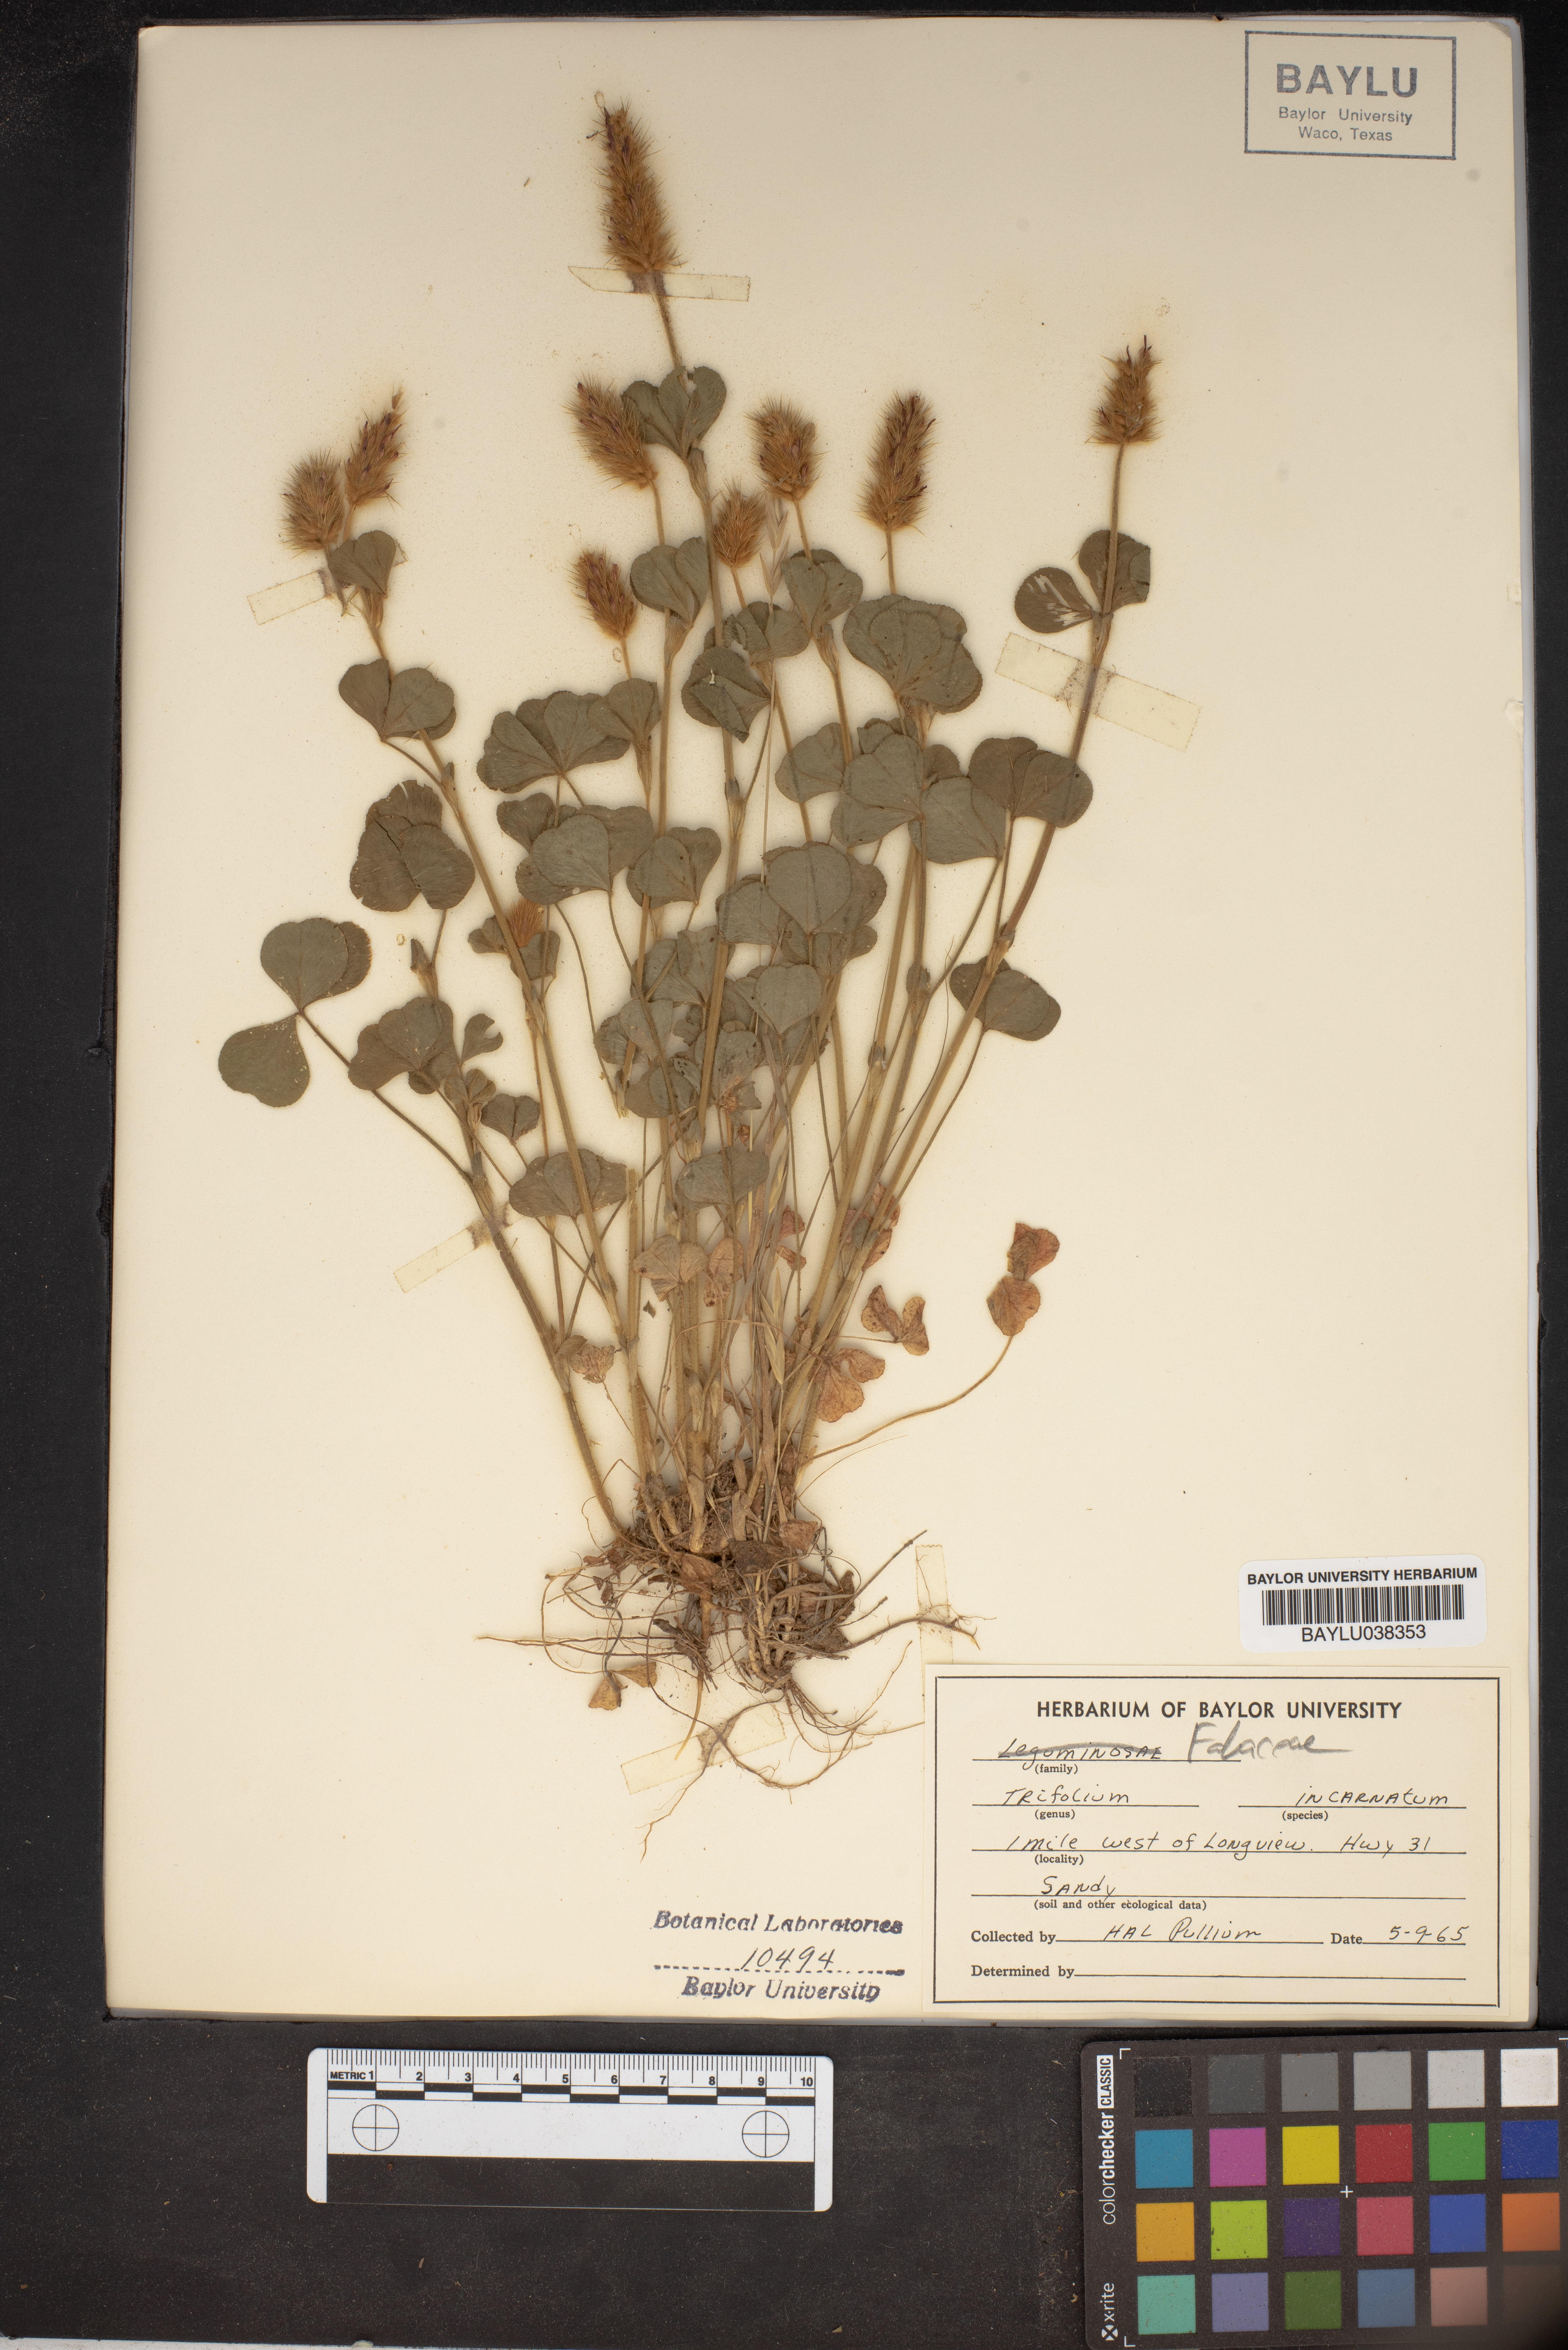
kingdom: Plantae
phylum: Tracheophyta
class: Magnoliopsida
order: Fabales
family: Fabaceae
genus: Trifolium
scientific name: Trifolium incarnatum
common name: Crimson clover
